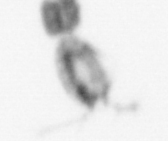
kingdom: Animalia
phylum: Arthropoda
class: Copepoda
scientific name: Copepoda
